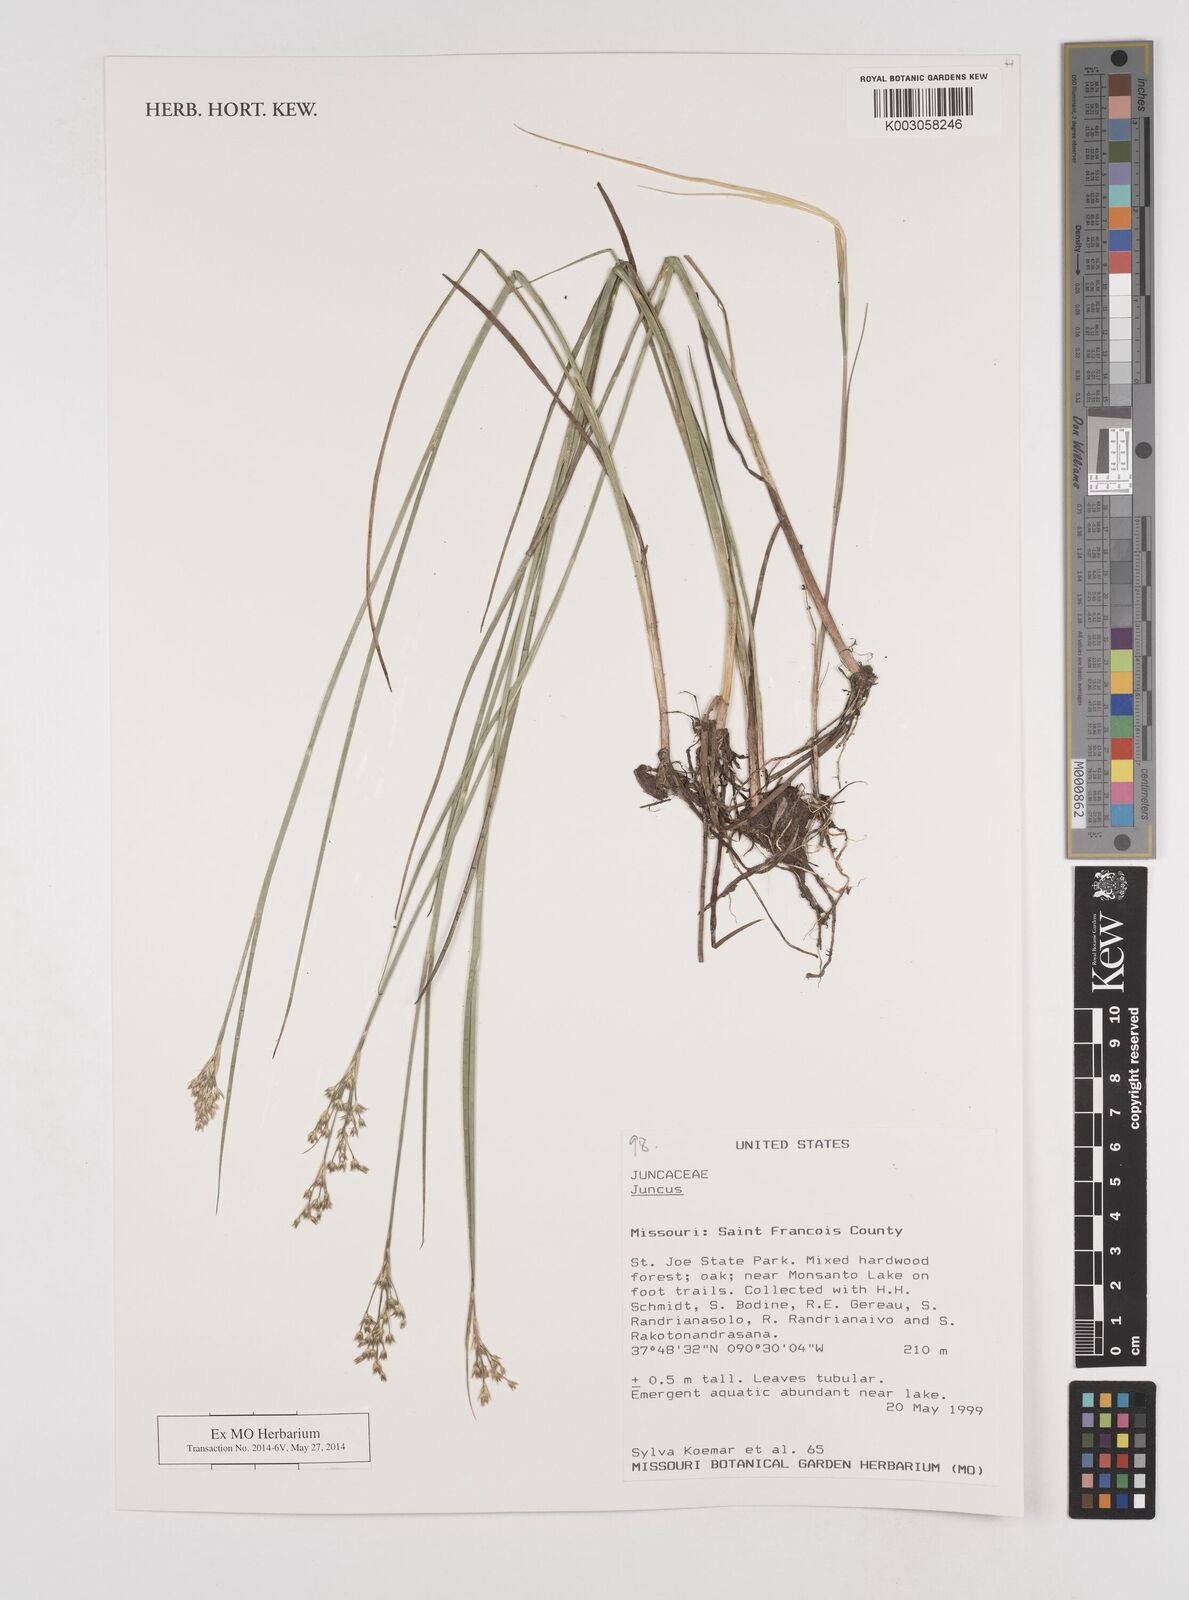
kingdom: Plantae
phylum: Tracheophyta
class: Liliopsida
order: Poales
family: Juncaceae
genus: Juncus
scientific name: Juncus
